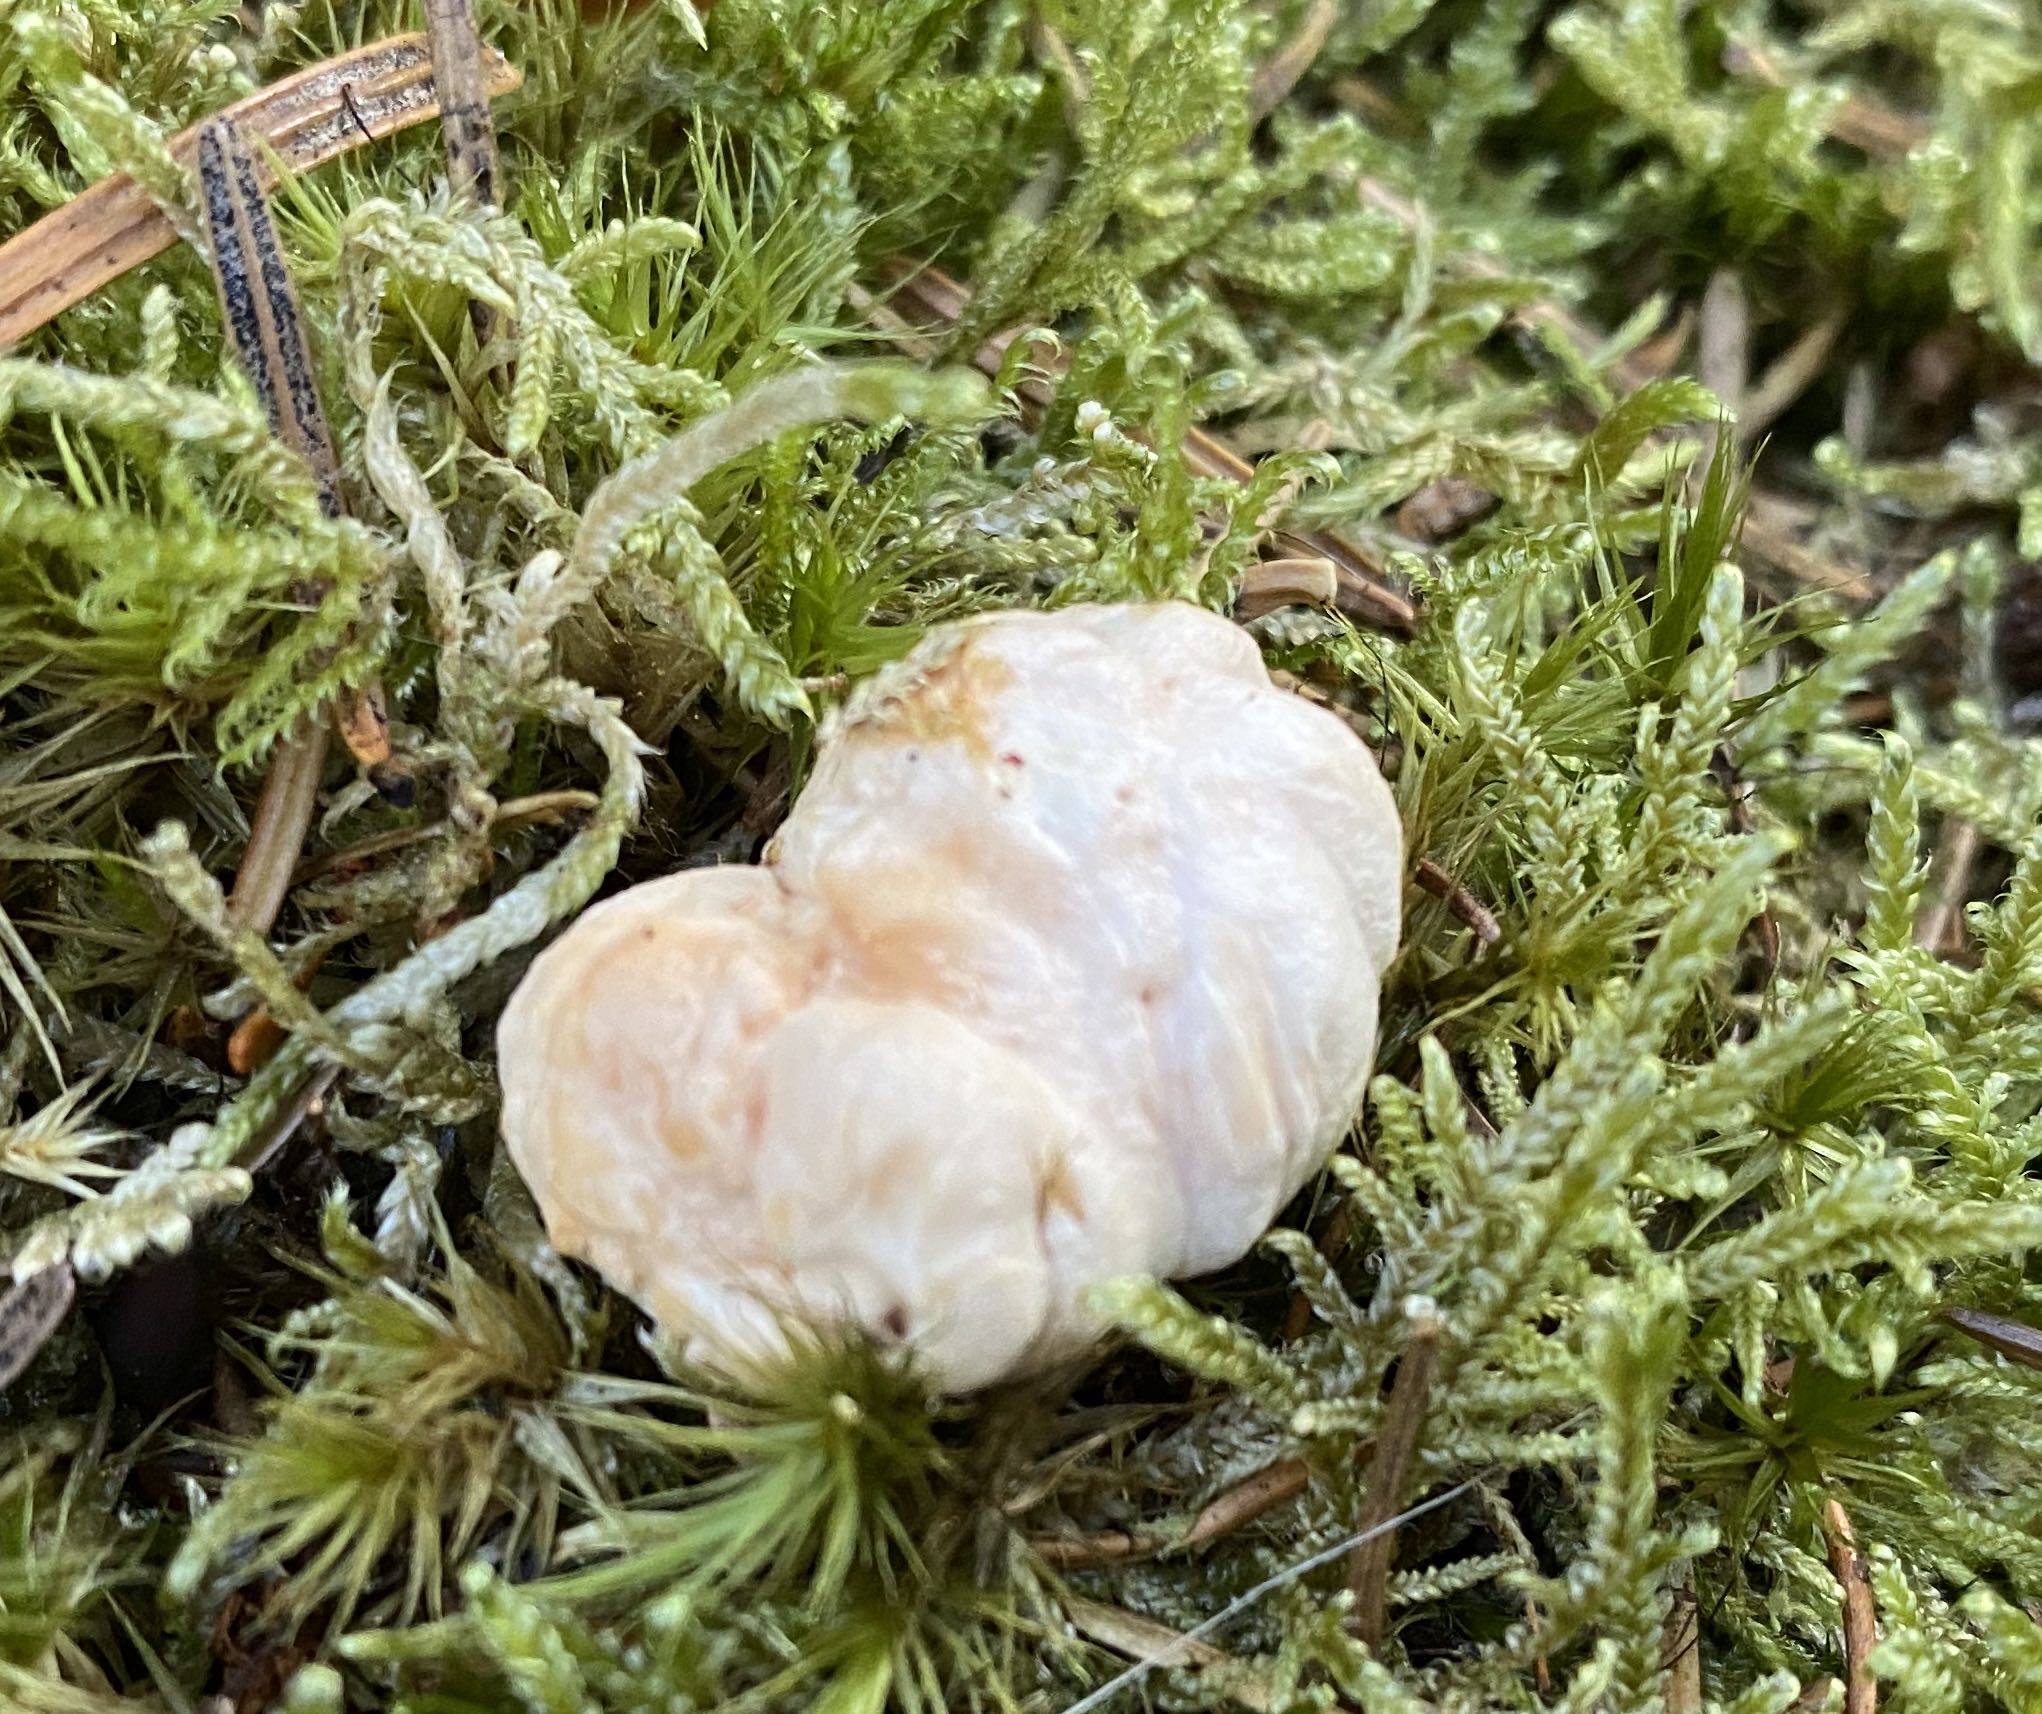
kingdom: Fungi
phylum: Basidiomycota
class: Agaricomycetes
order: Cantharellales
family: Hydnaceae
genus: Hydnum
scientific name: Hydnum
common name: pigsvamp
